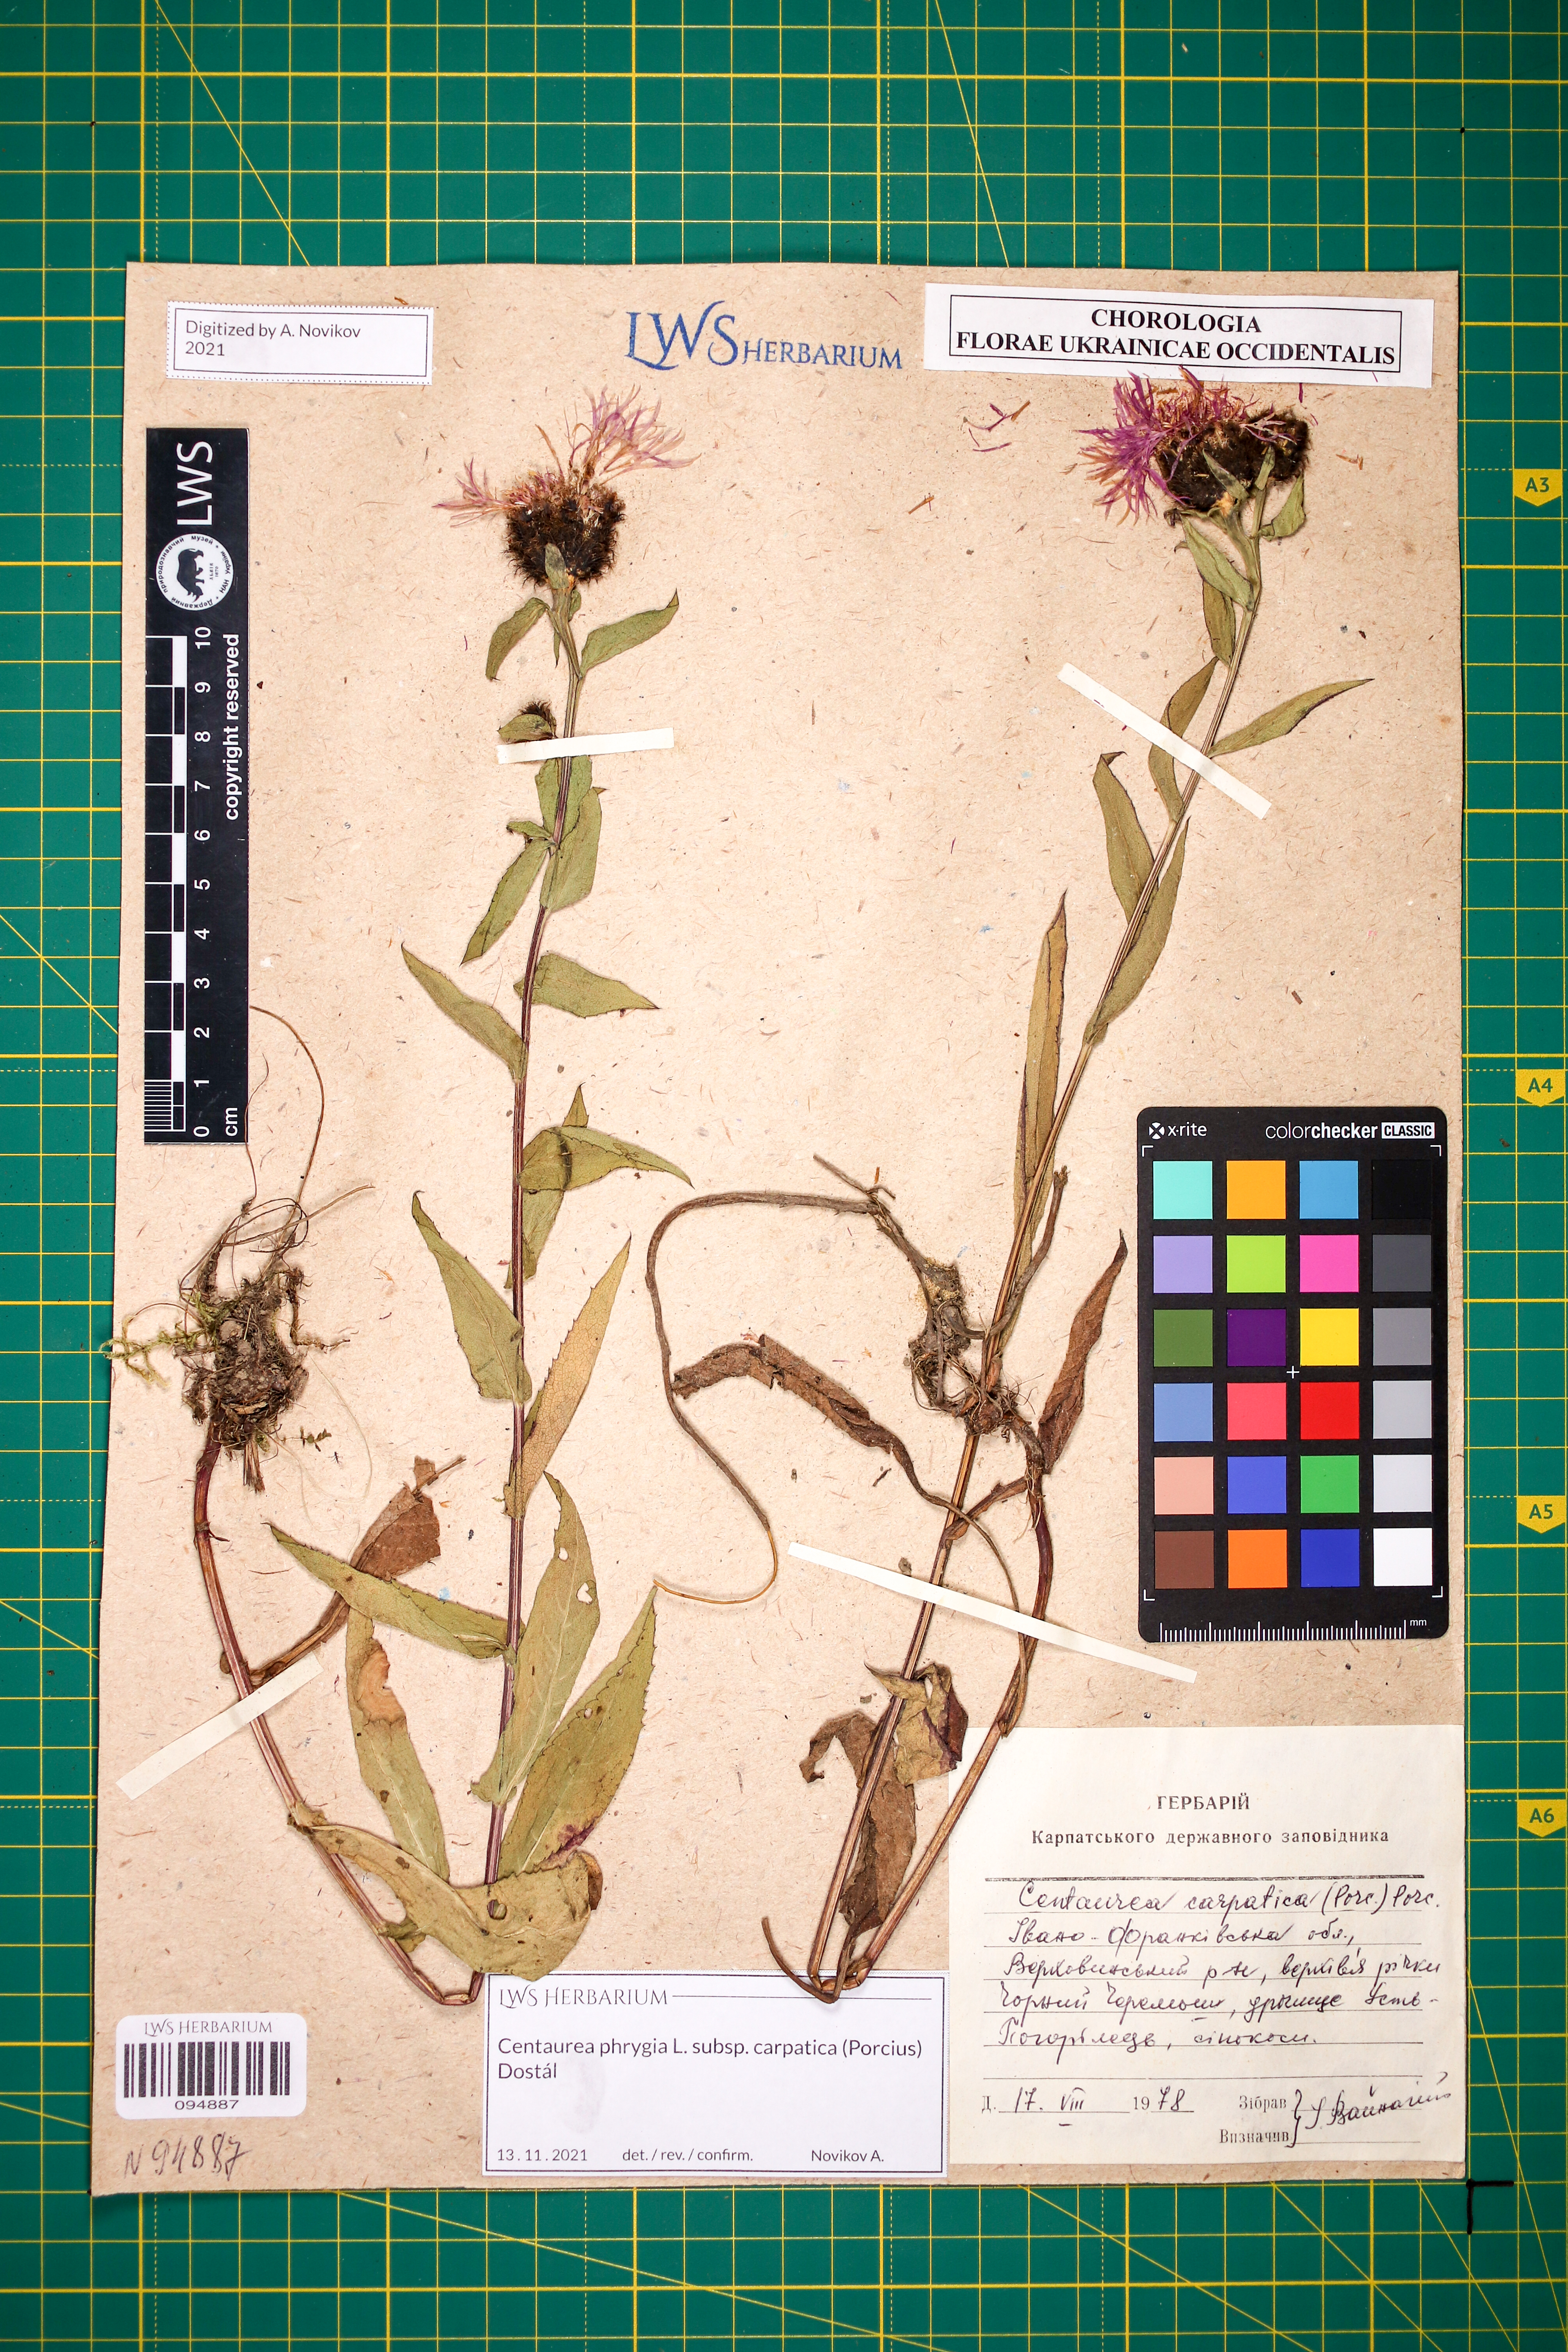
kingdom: Plantae
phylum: Tracheophyta
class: Magnoliopsida
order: Asterales
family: Asteraceae
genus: Centaurea
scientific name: Centaurea phrygia
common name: Wig knapweed
